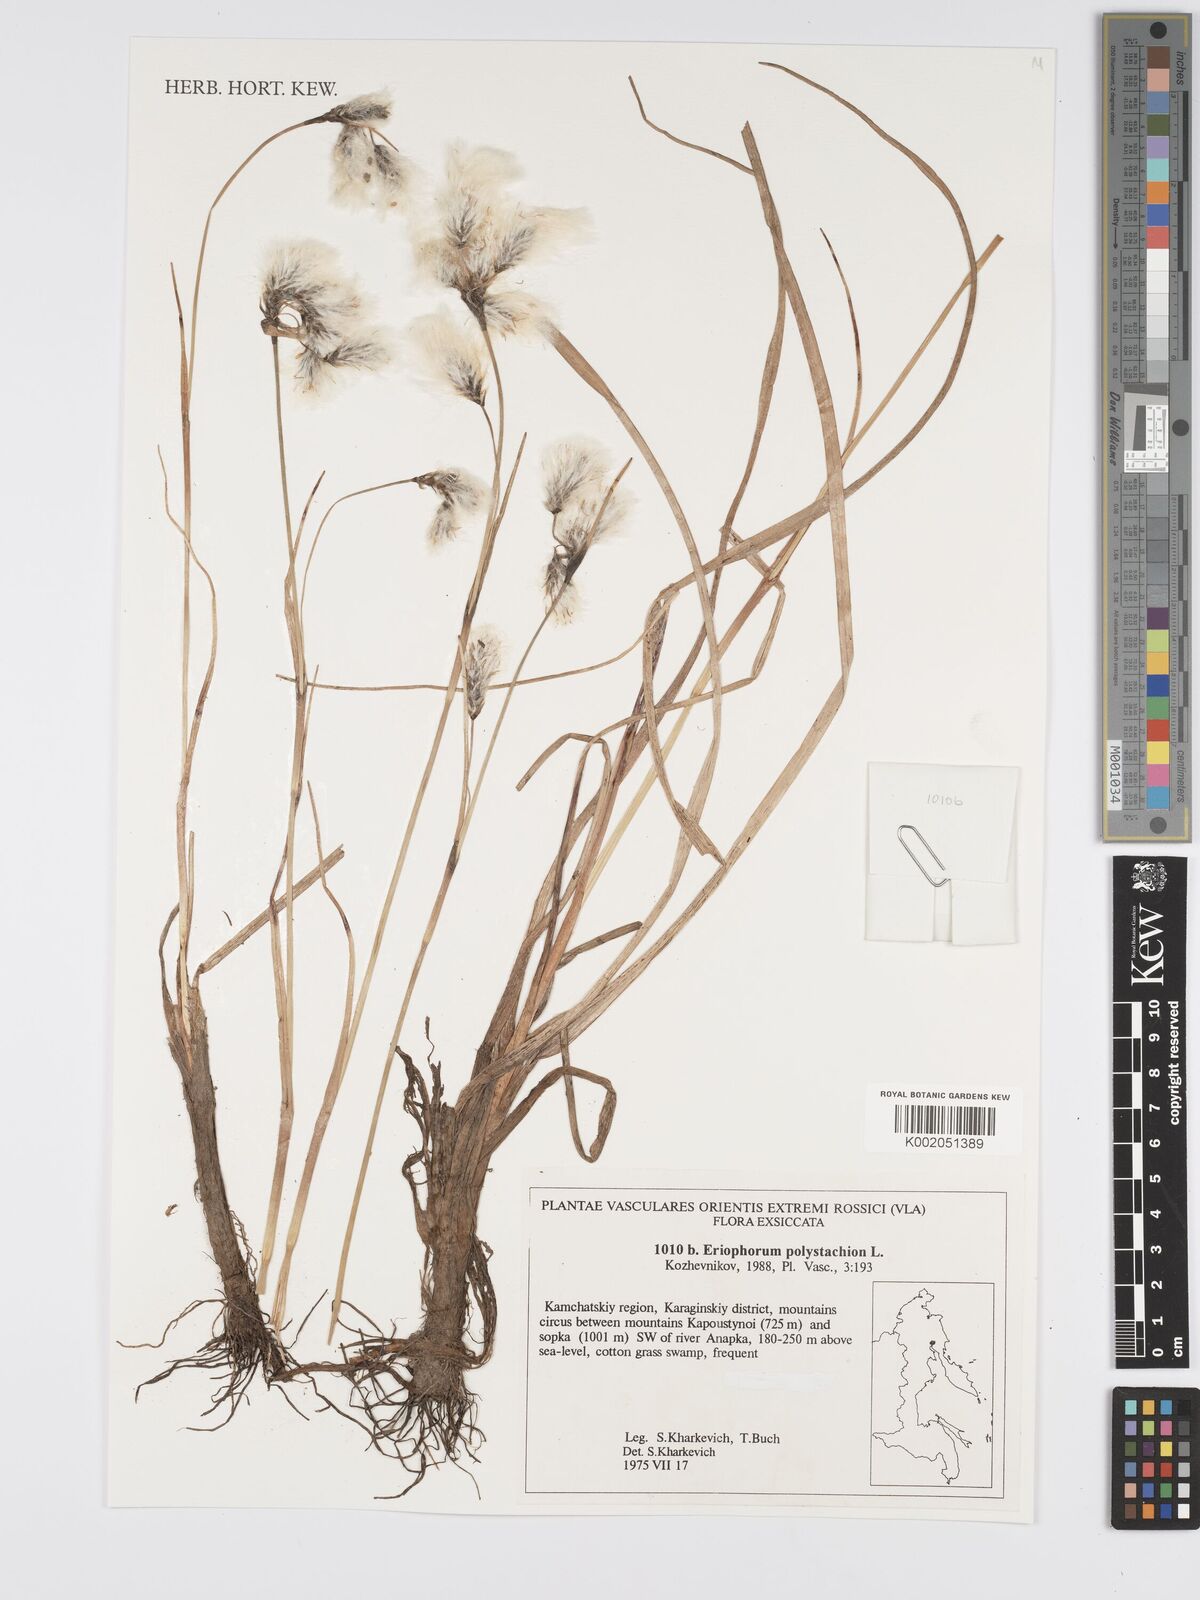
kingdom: Plantae
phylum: Tracheophyta
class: Liliopsida
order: Poales
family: Cyperaceae
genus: Eriophorum
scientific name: Eriophorum angustifolium
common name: Common cottongrass
